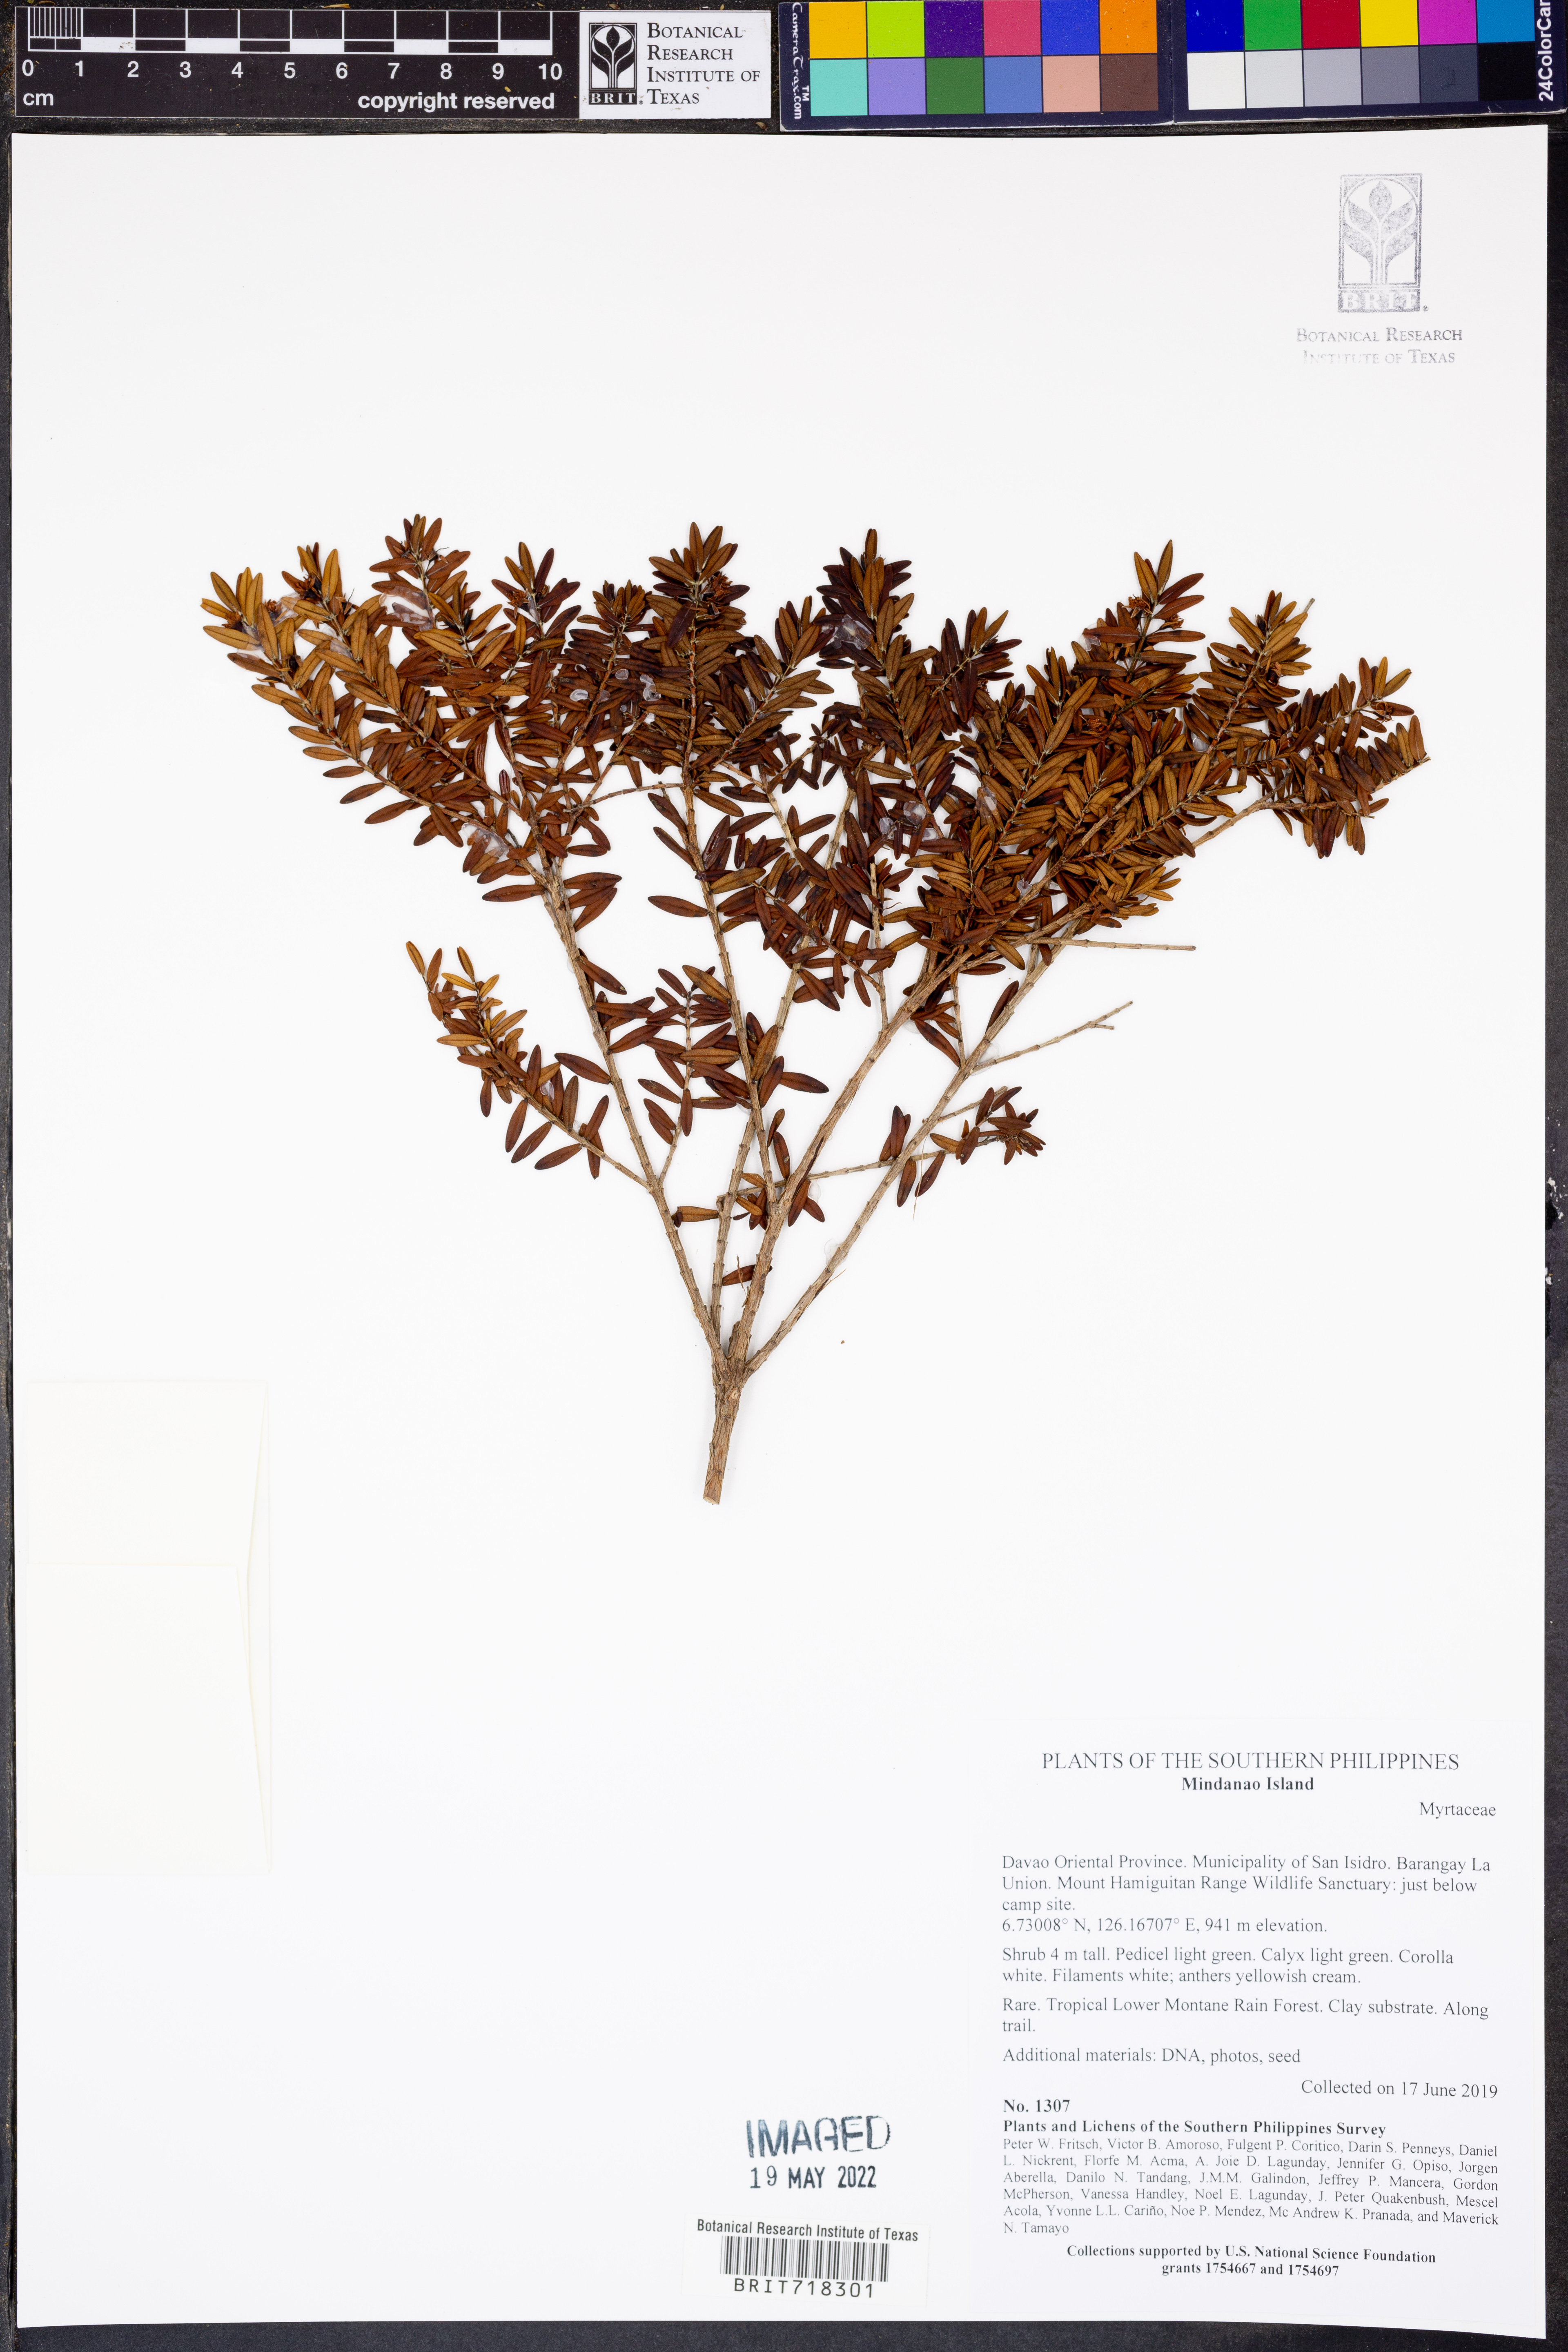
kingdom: Plantae
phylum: Tracheophyta
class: Magnoliopsida
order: Myrtales
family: Myrtaceae
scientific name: Myrtaceae
